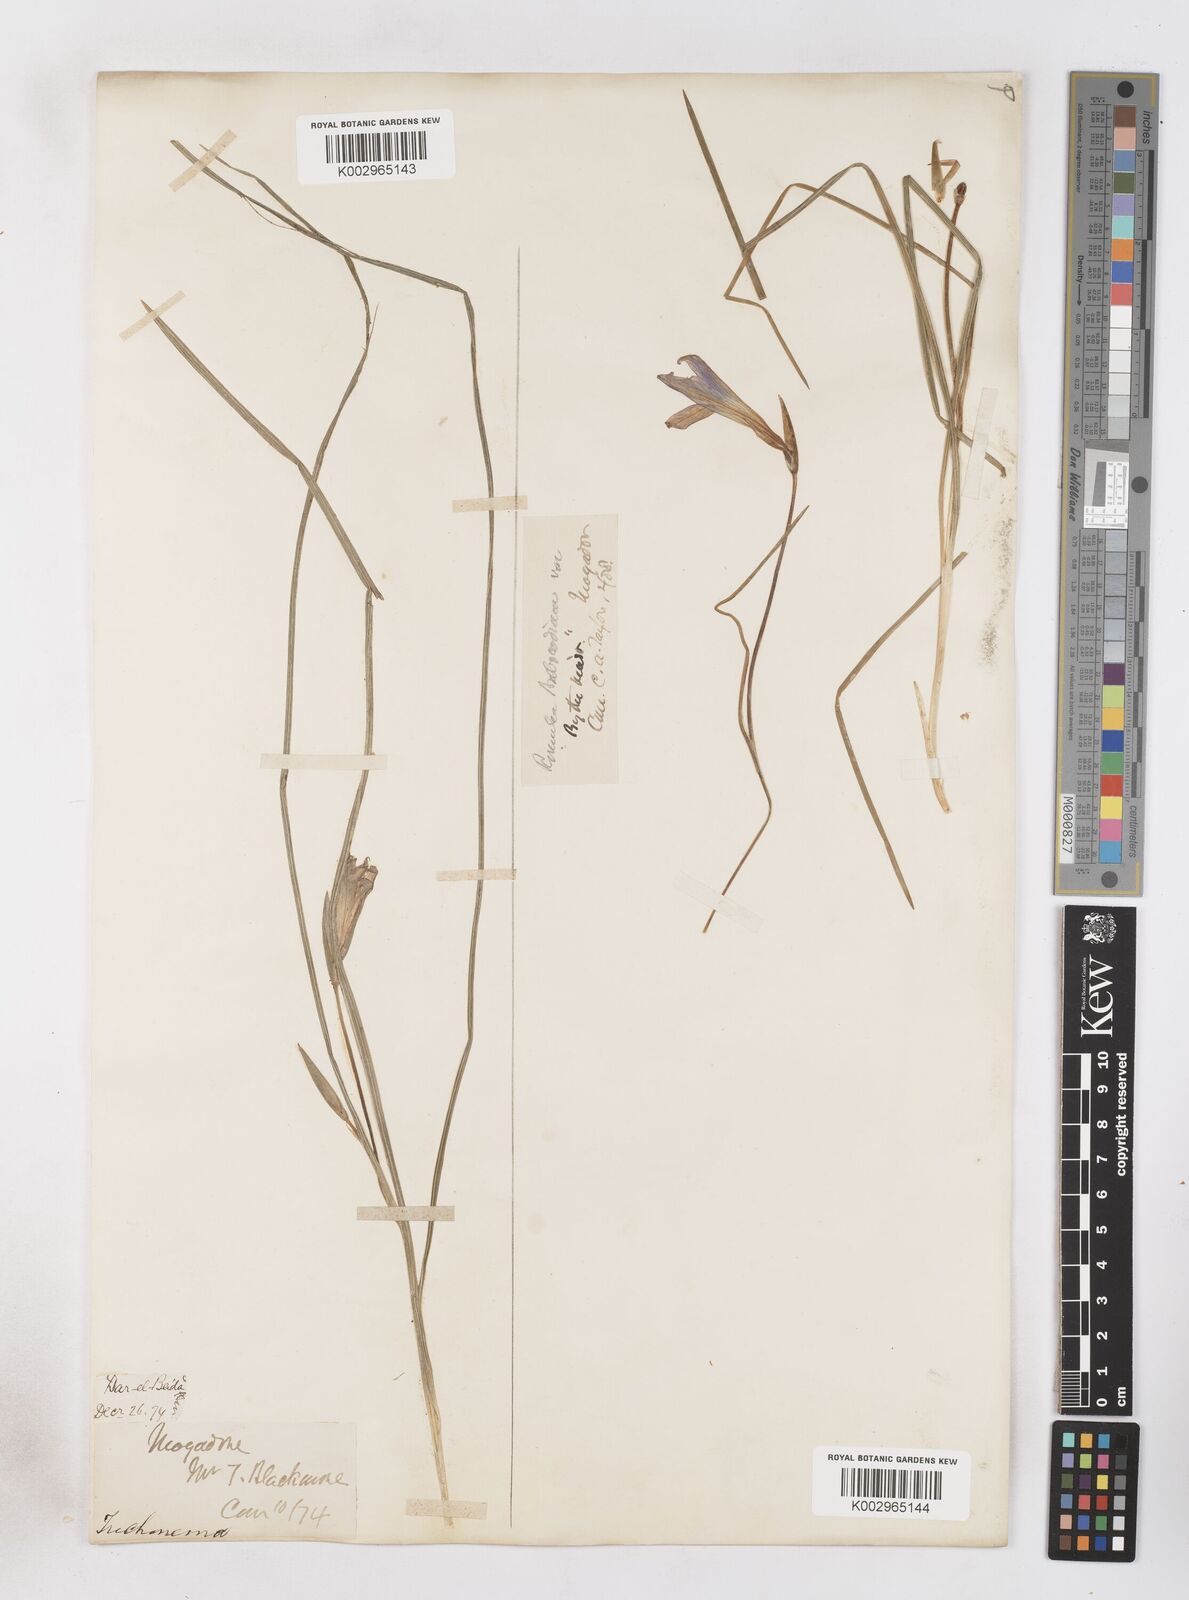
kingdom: Plantae
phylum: Tracheophyta
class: Liliopsida
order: Asparagales
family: Iridaceae
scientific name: Iridaceae
